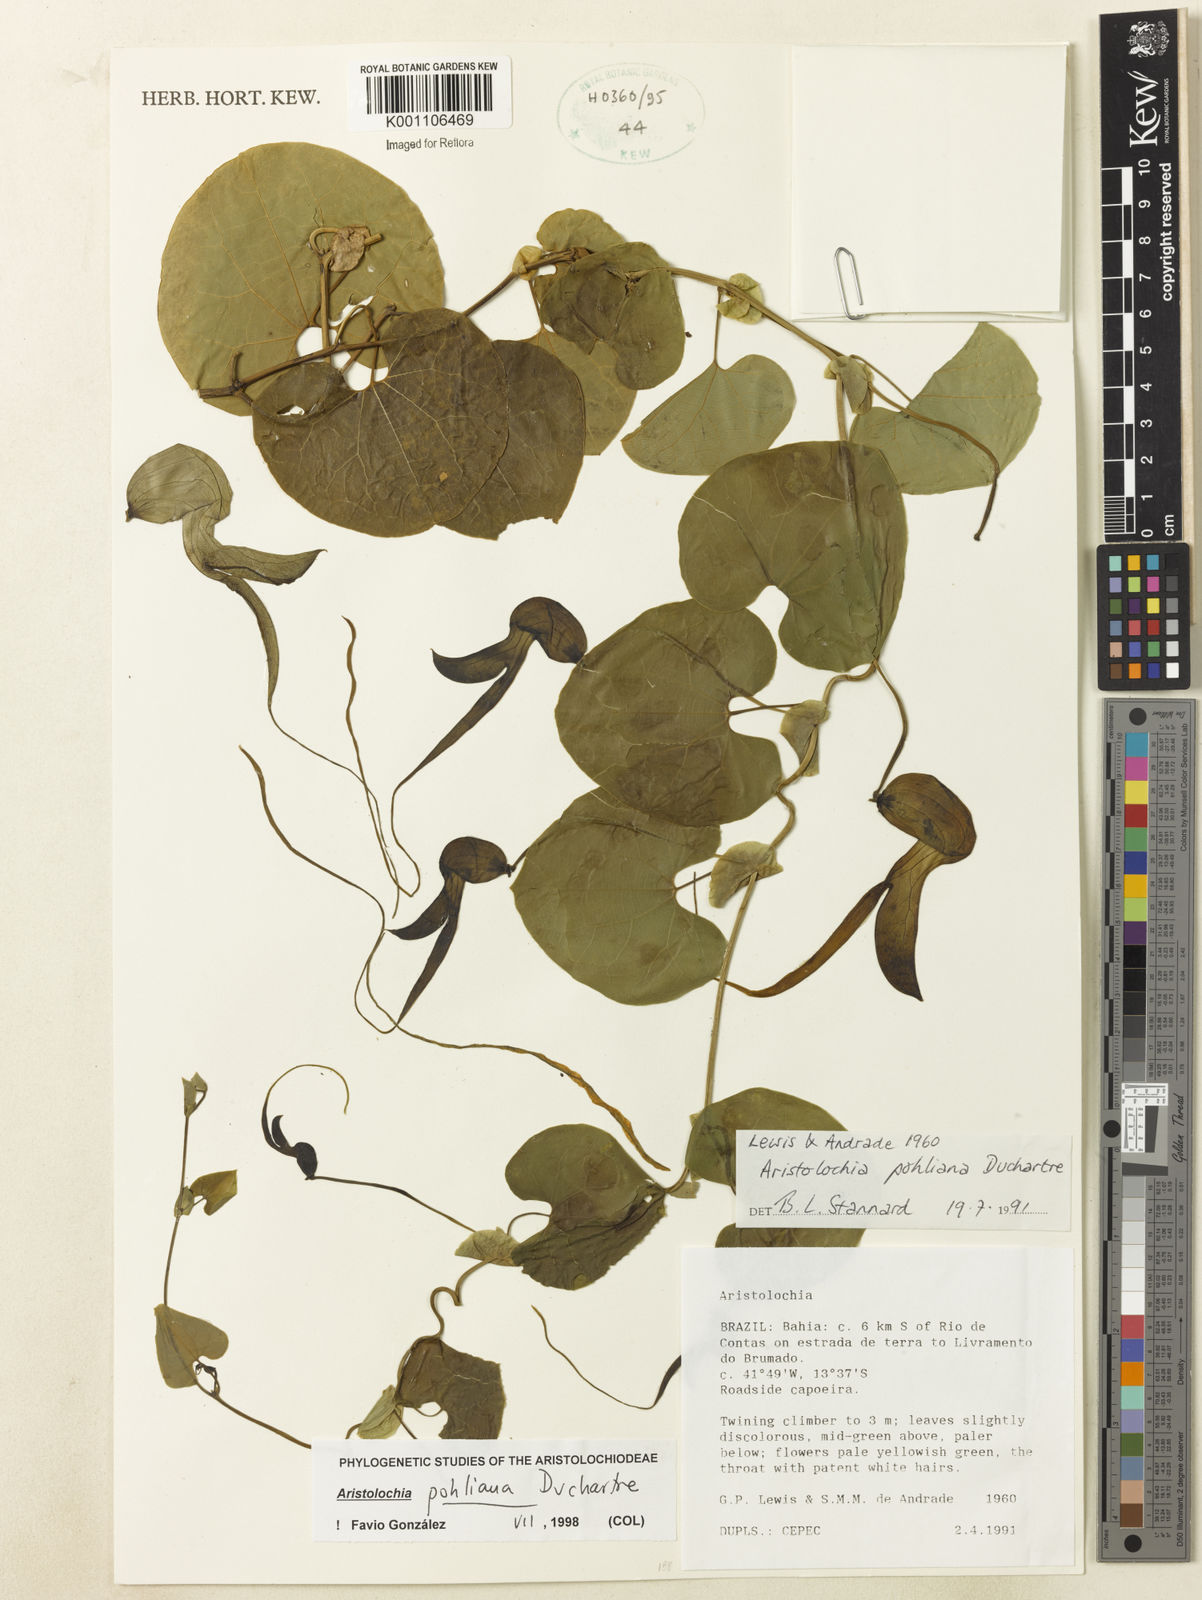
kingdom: Plantae
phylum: Tracheophyta
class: Magnoliopsida
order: Piperales
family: Aristolochiaceae
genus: Aristolochia
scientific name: Aristolochia pohliana
